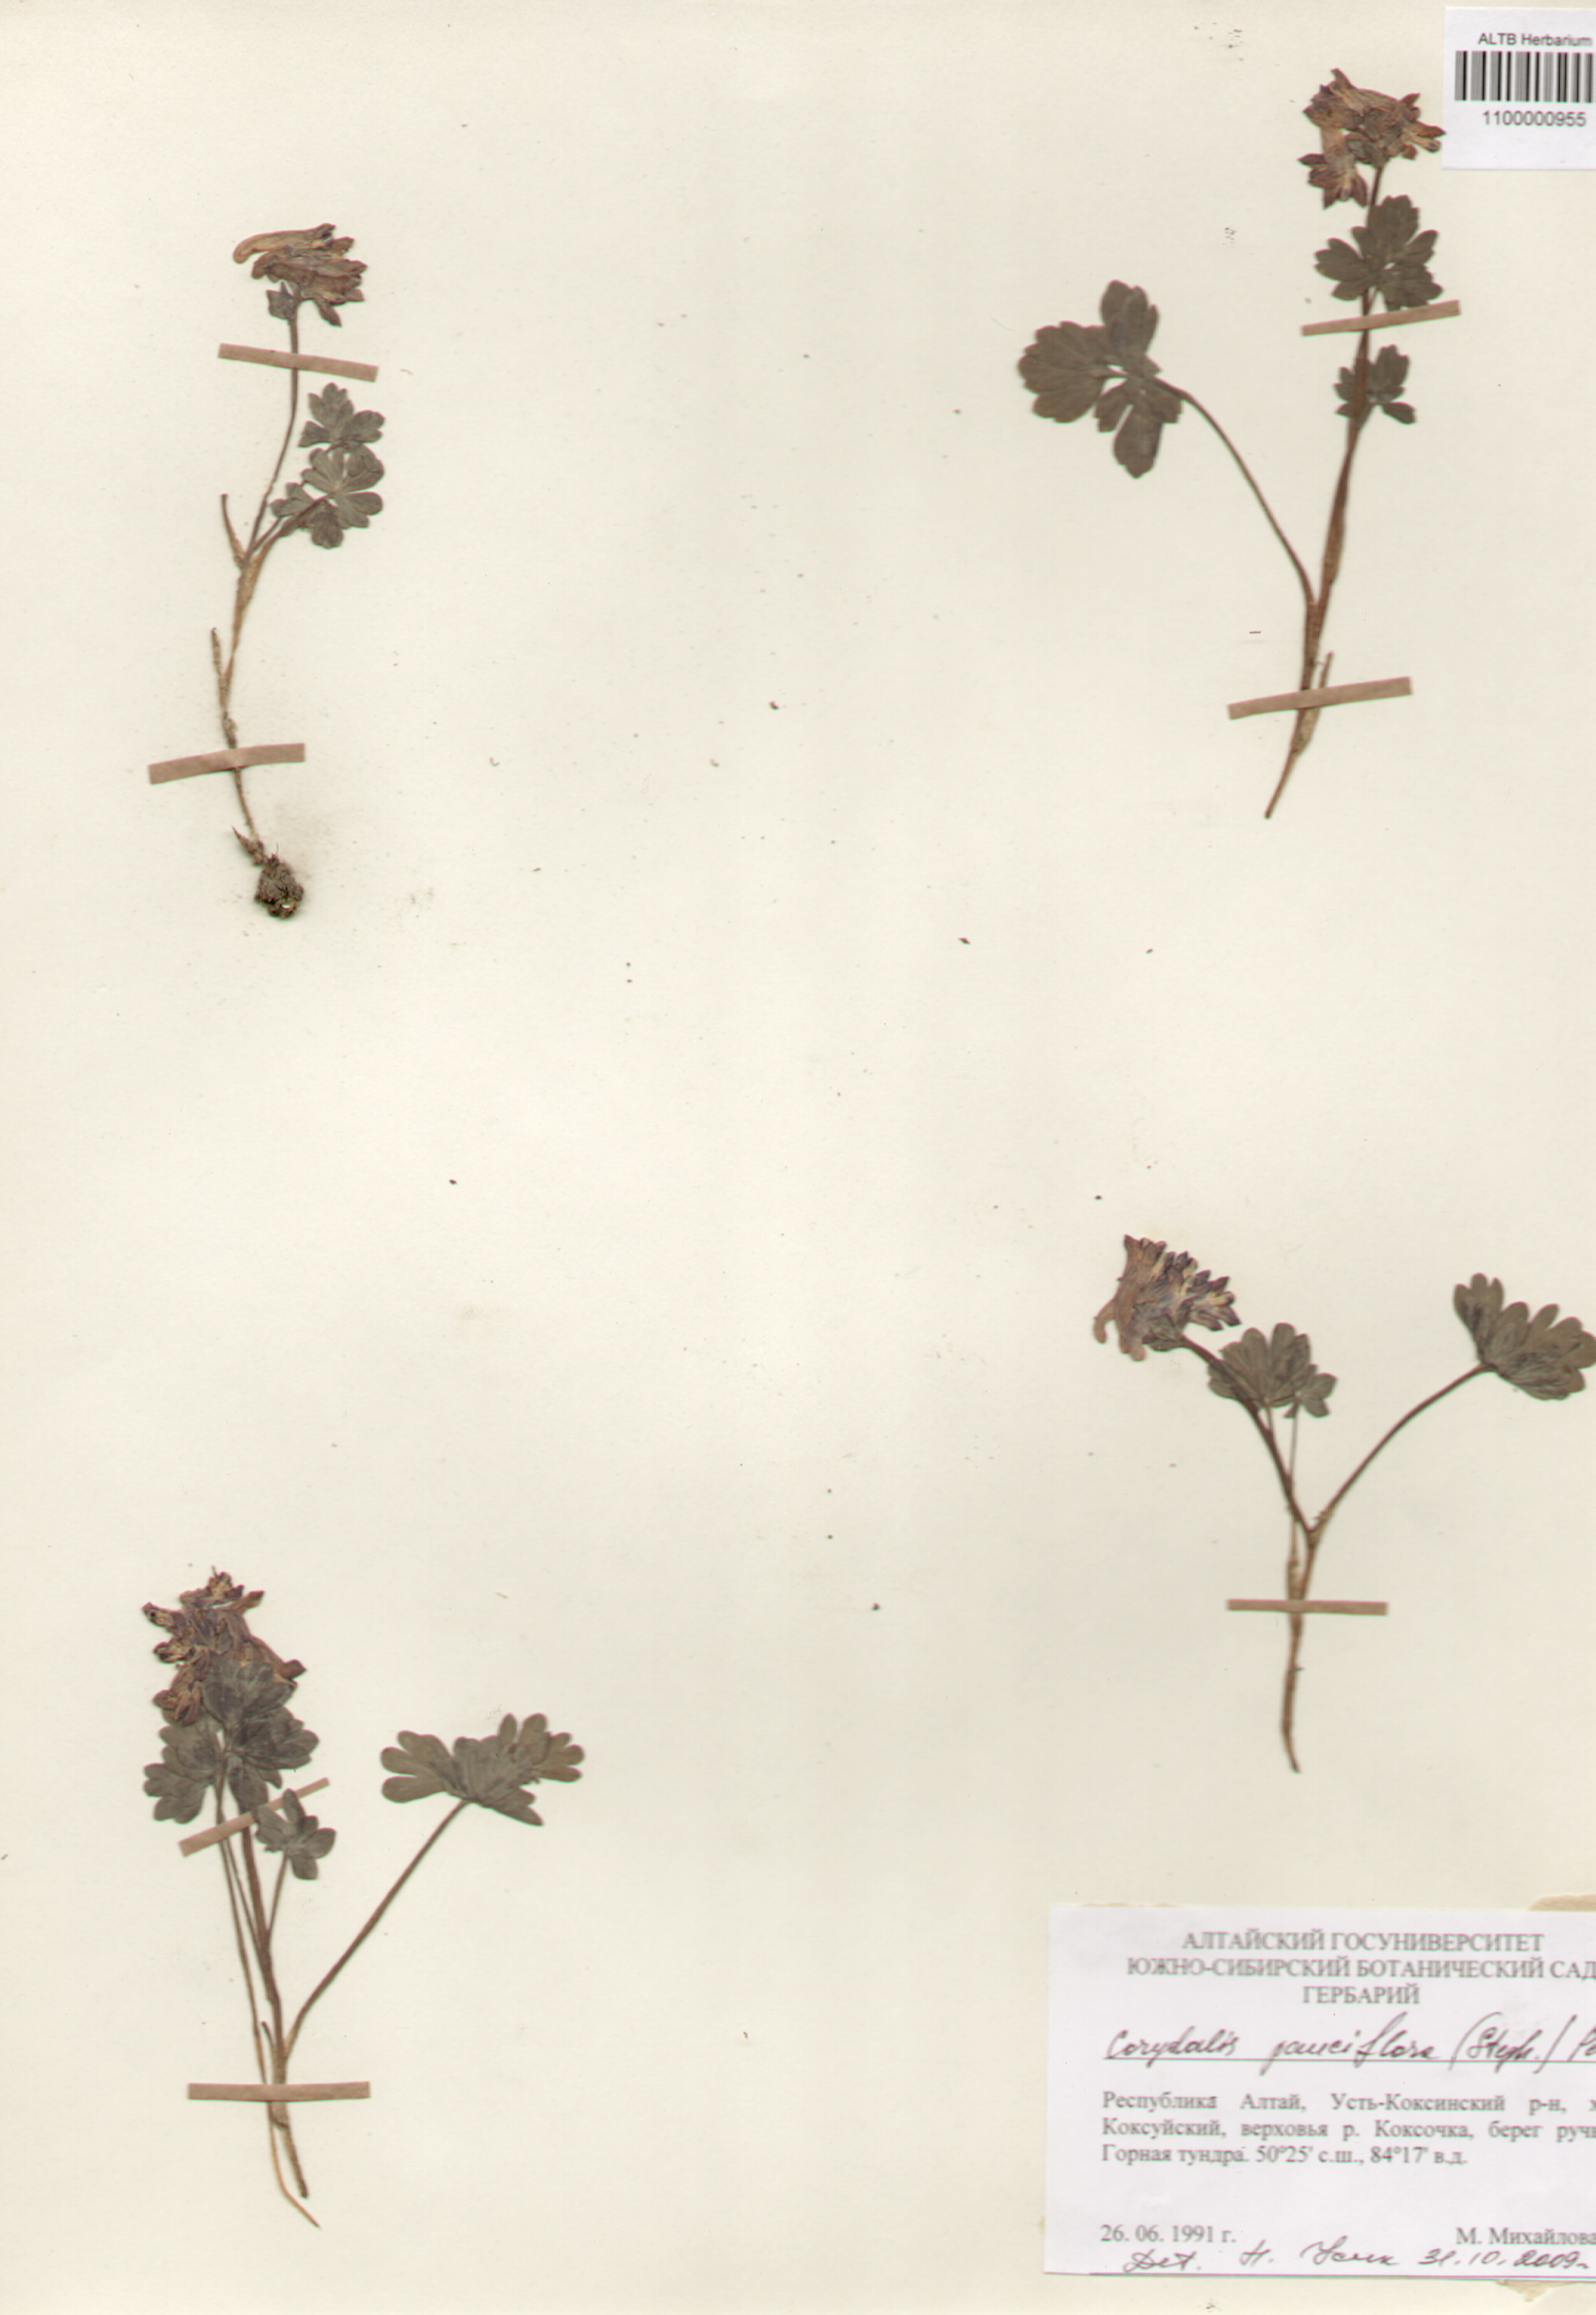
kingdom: Plantae
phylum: Tracheophyta
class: Magnoliopsida
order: Ranunculales
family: Papaveraceae
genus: Corydalis
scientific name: Corydalis pauciflora
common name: Blue corydalis
